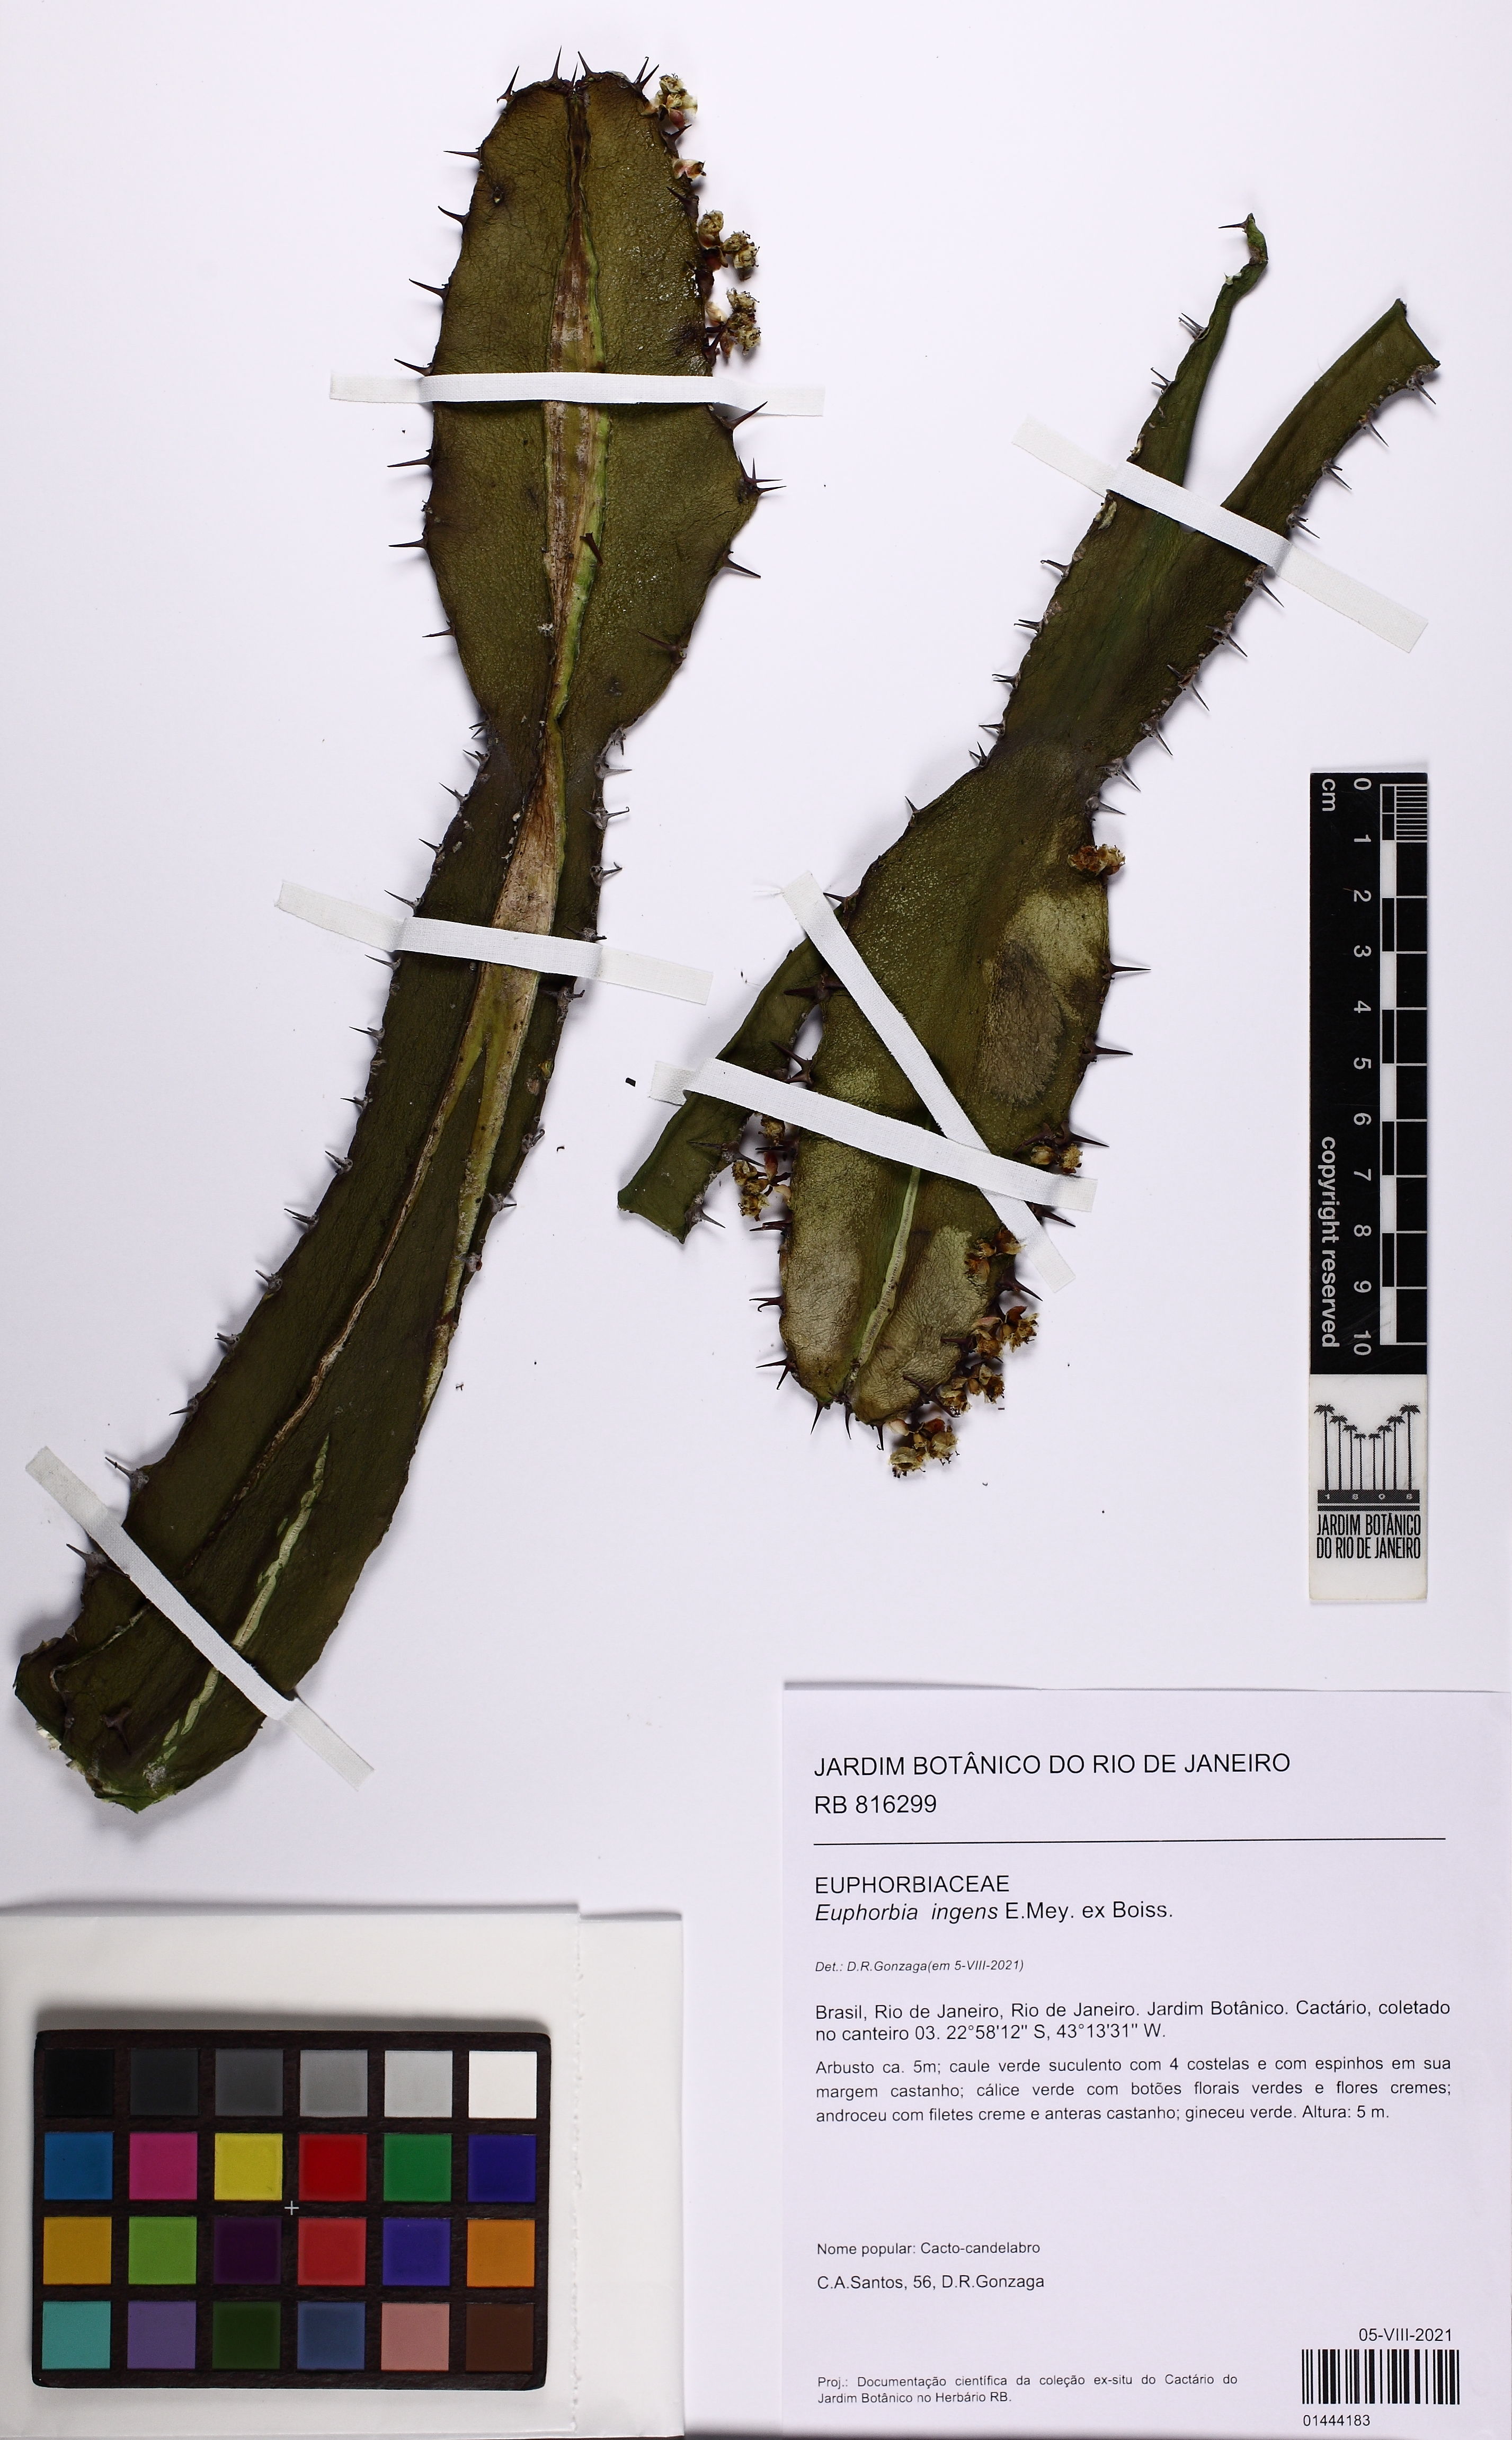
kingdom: Plantae
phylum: Tracheophyta
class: Magnoliopsida
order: Malpighiales
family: Euphorbiaceae
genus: Euphorbia
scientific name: Euphorbia ingens
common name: Cactus spurge
